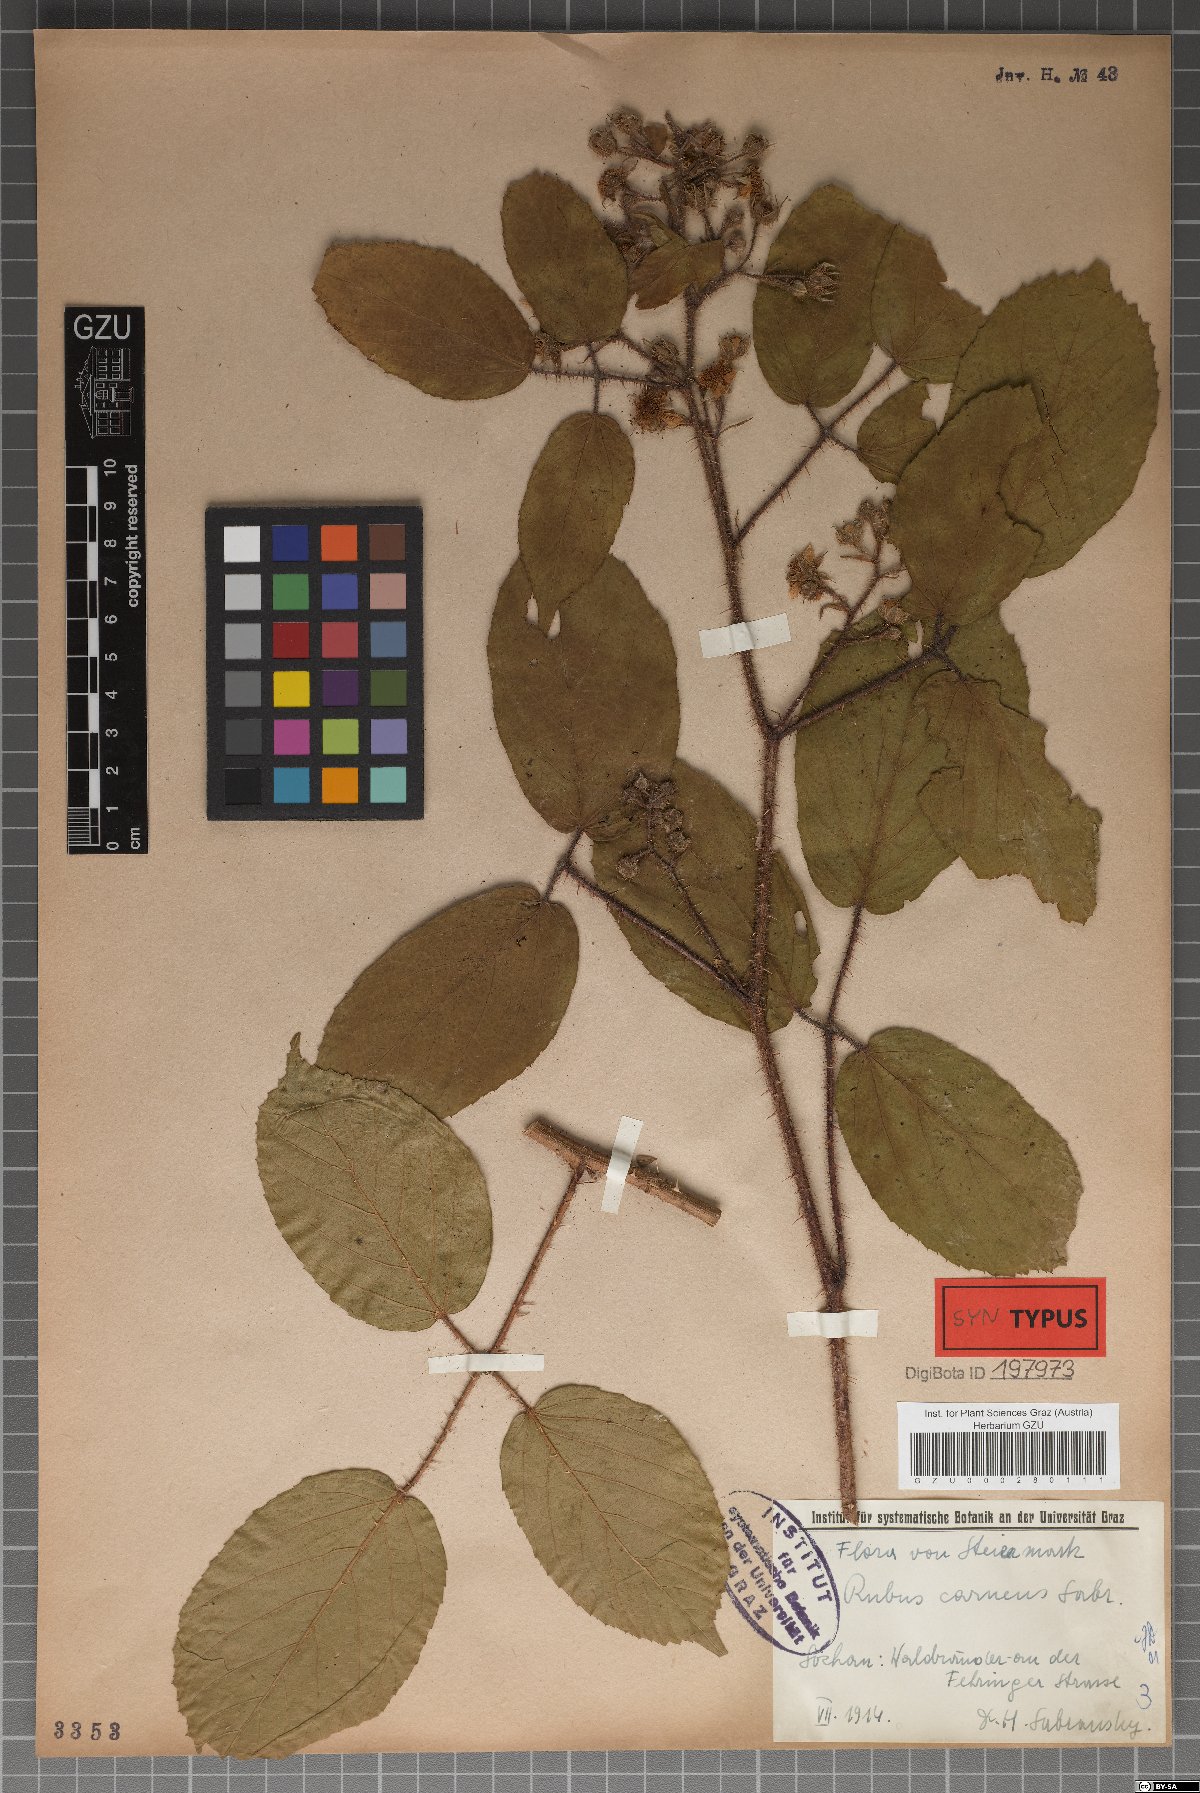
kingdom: Plantae
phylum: Tracheophyta
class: Magnoliopsida
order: Rosales
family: Rosaceae
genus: Rubus
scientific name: Rubus carneus
